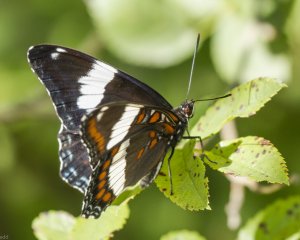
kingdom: Animalia
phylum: Arthropoda
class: Insecta
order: Lepidoptera
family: Nymphalidae
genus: Limenitis
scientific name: Limenitis arthemis
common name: Red-spotted Admiral
